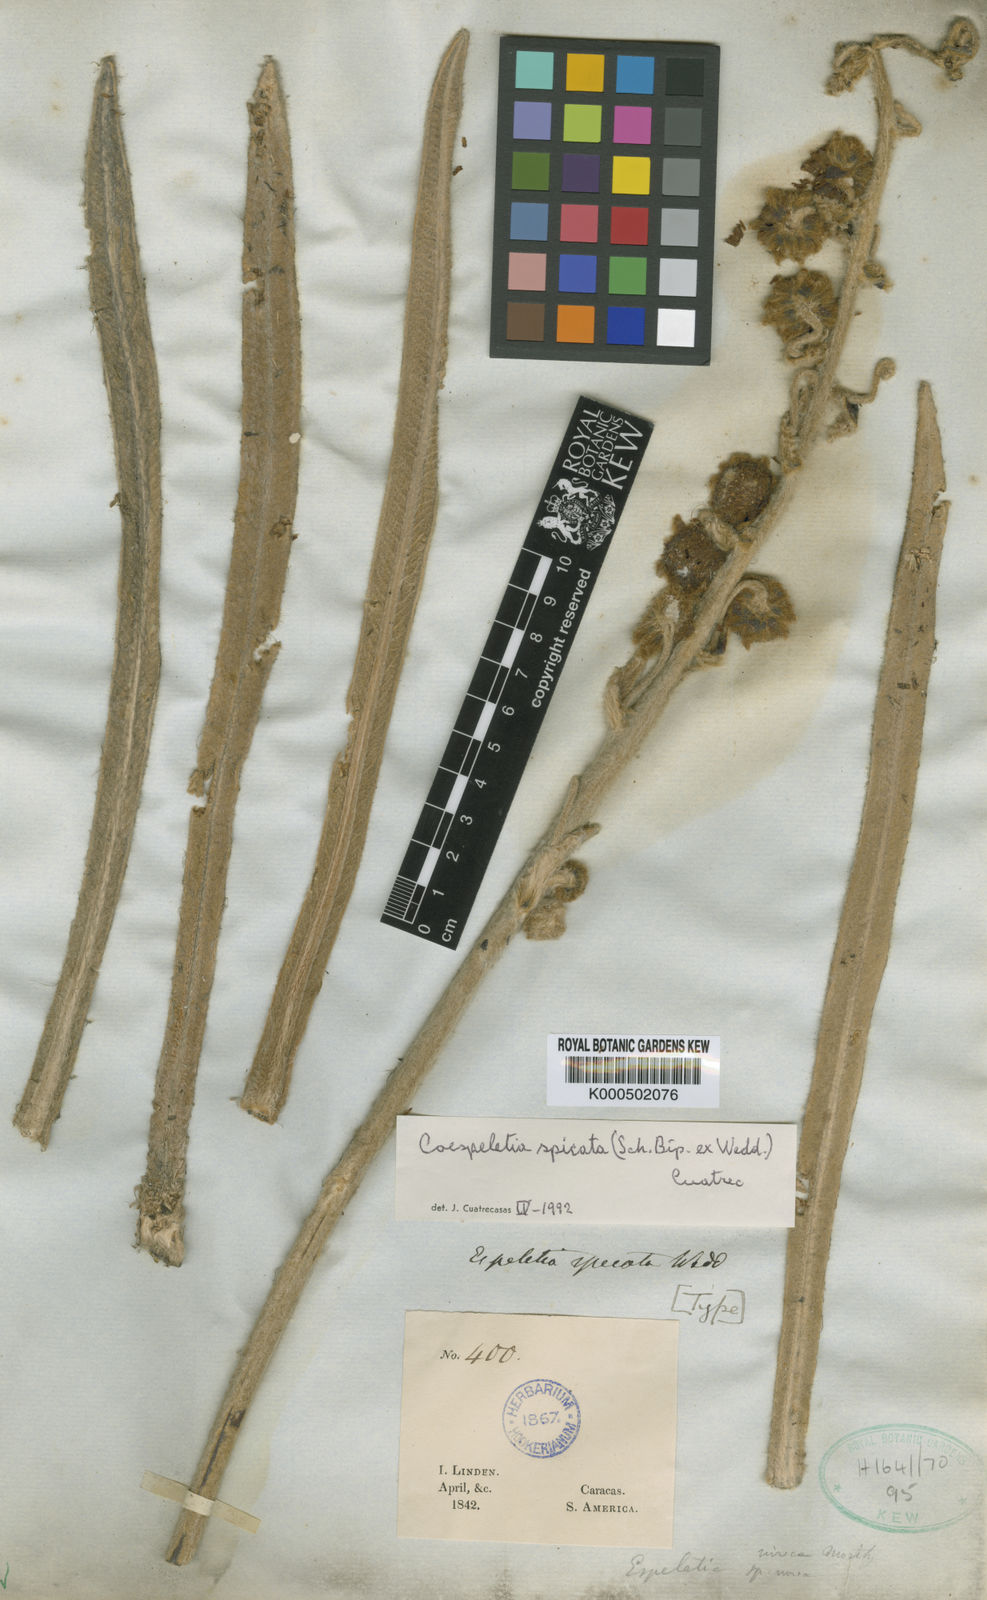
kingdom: Plantae
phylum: Tracheophyta
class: Magnoliopsida
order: Asterales
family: Asteraceae
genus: Espeletia
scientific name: Espeletia spicata
